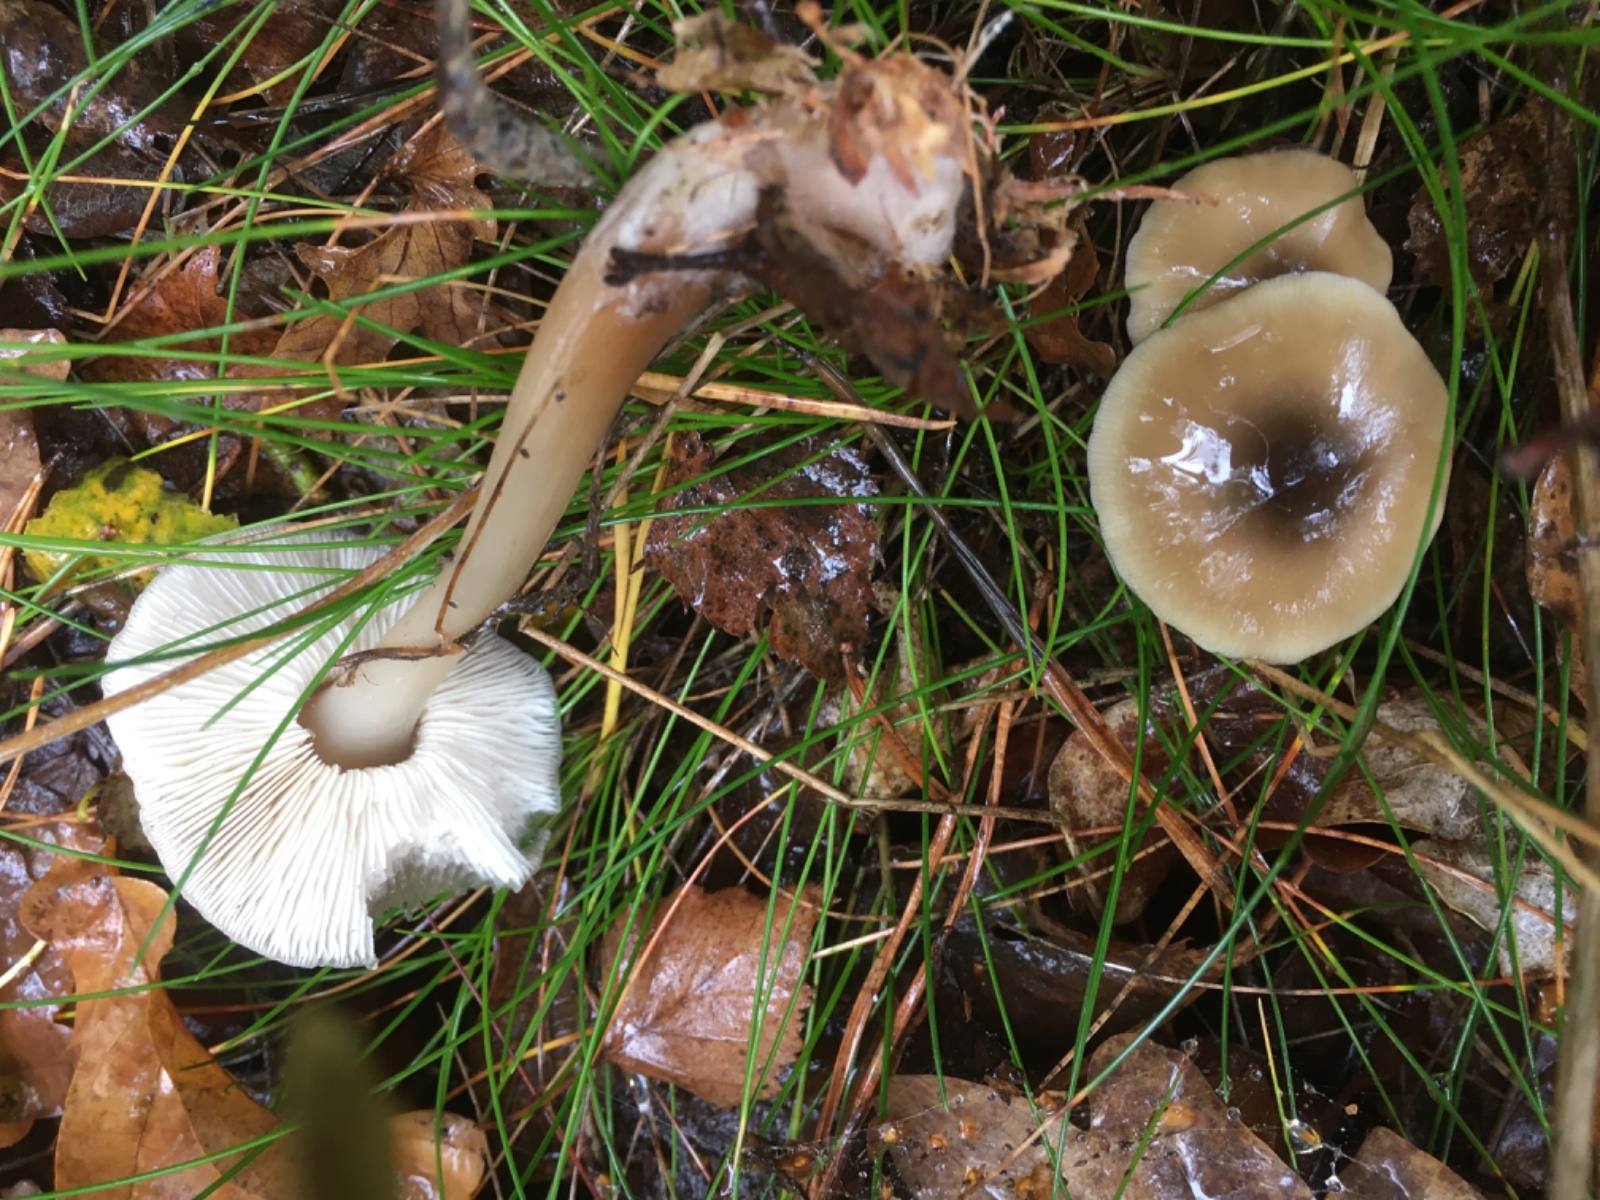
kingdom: Fungi
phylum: Basidiomycota
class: Agaricomycetes
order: Agaricales
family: Omphalotaceae
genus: Rhodocollybia
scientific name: Rhodocollybia asema
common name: horngrå fladhat
